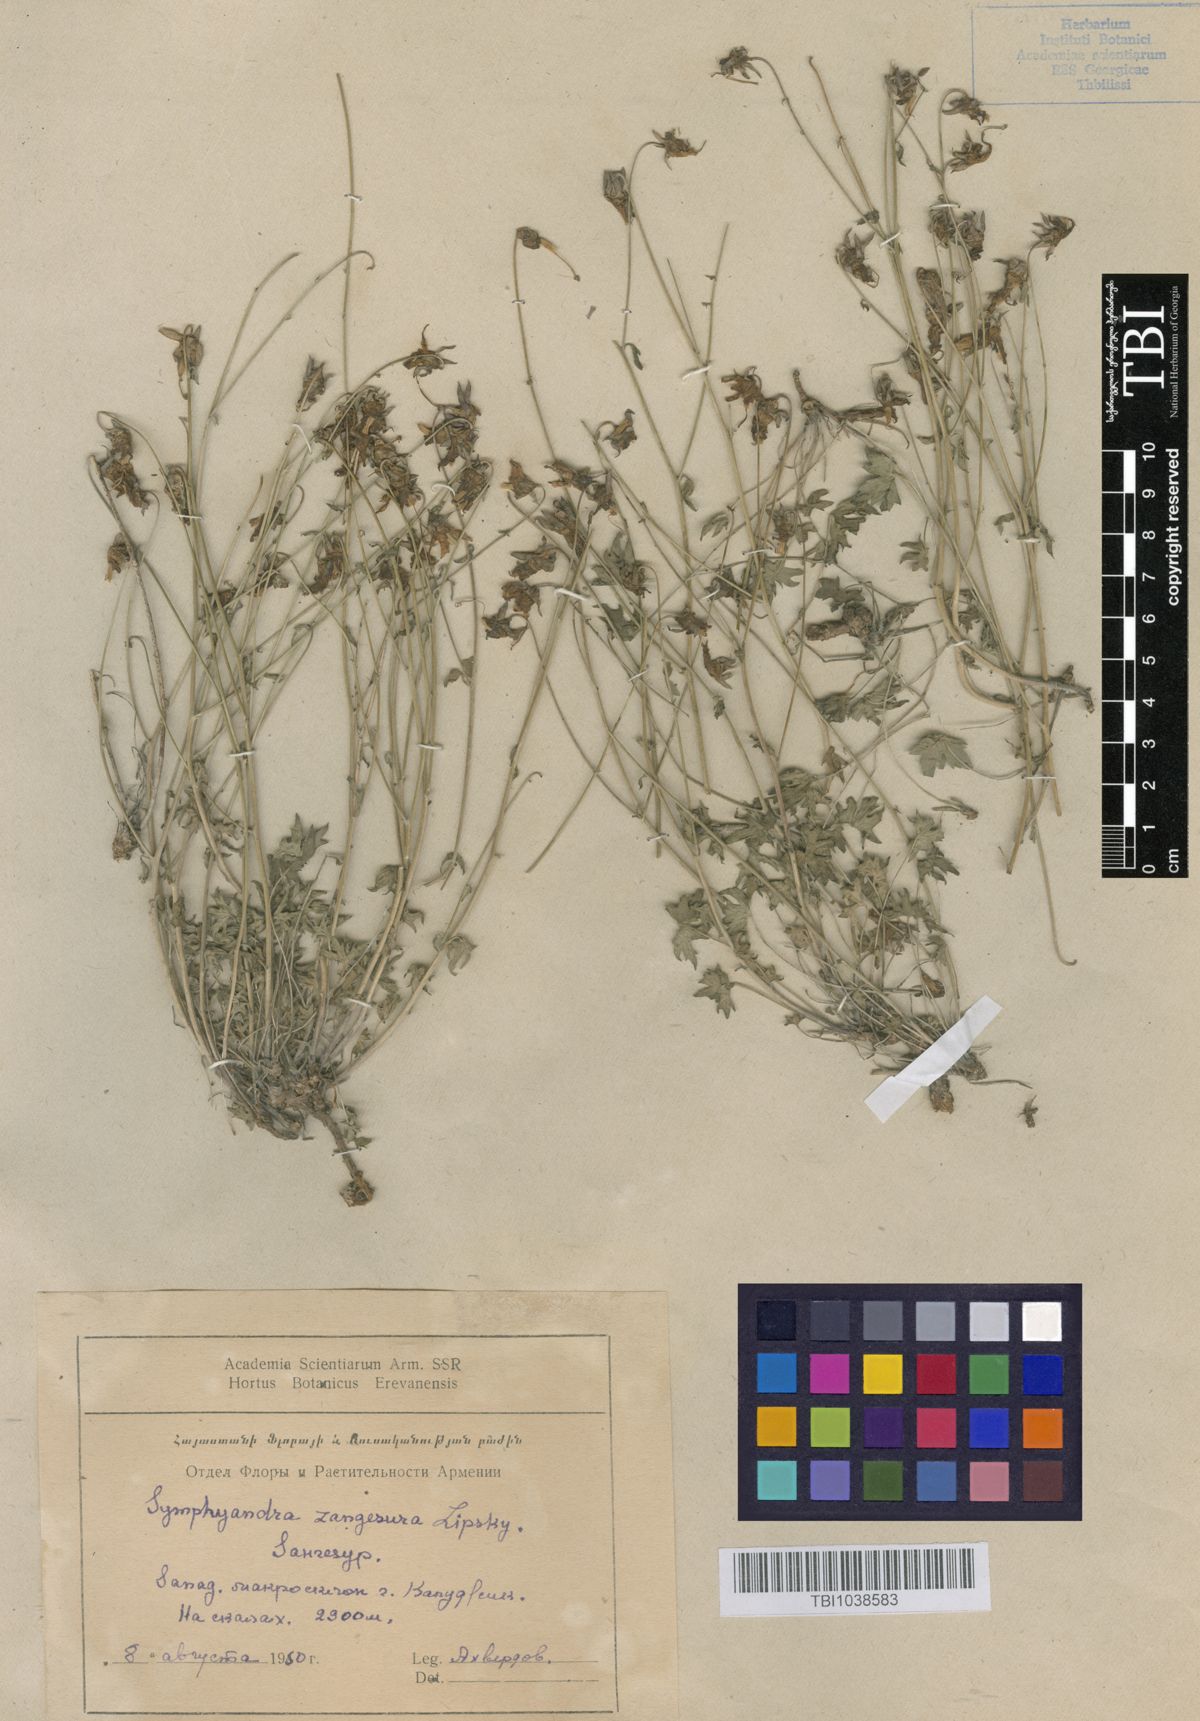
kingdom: Plantae
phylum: Tracheophyta
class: Magnoliopsida
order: Asterales
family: Campanulaceae
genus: Campanula
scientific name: Campanula zangezura
